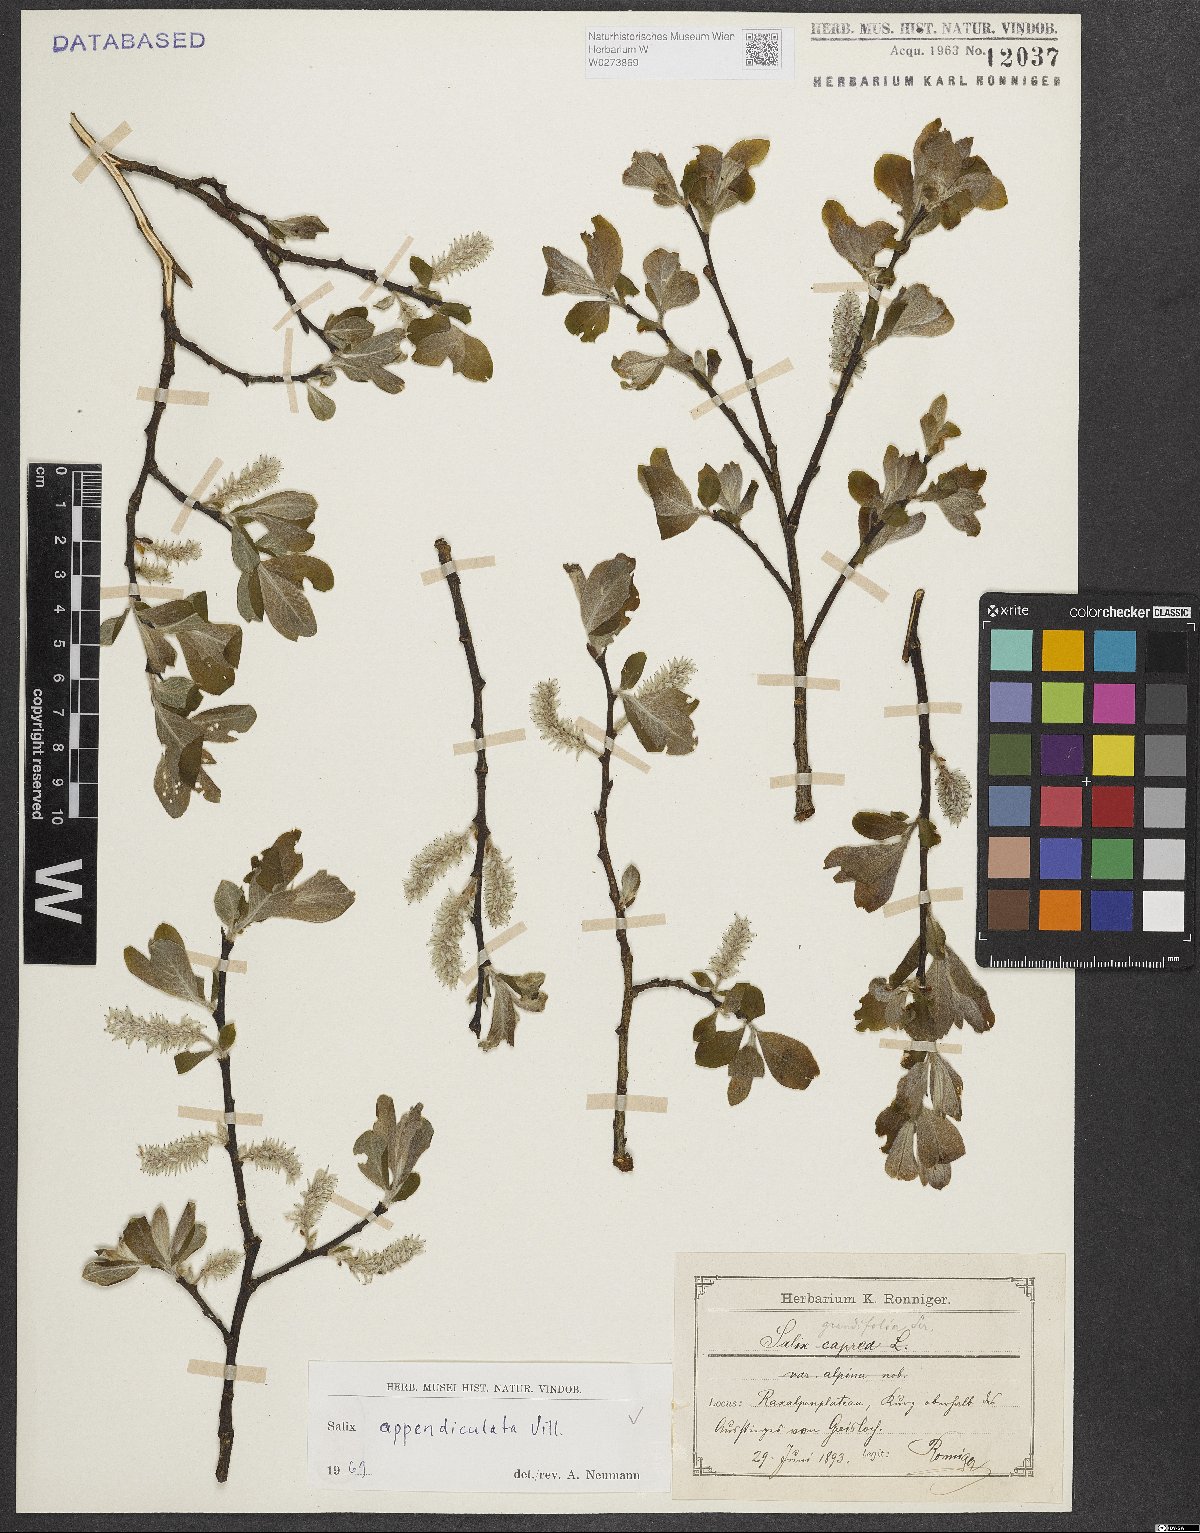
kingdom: Plantae
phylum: Tracheophyta
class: Magnoliopsida
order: Malpighiales
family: Salicaceae
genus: Salix
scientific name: Salix appendiculata
